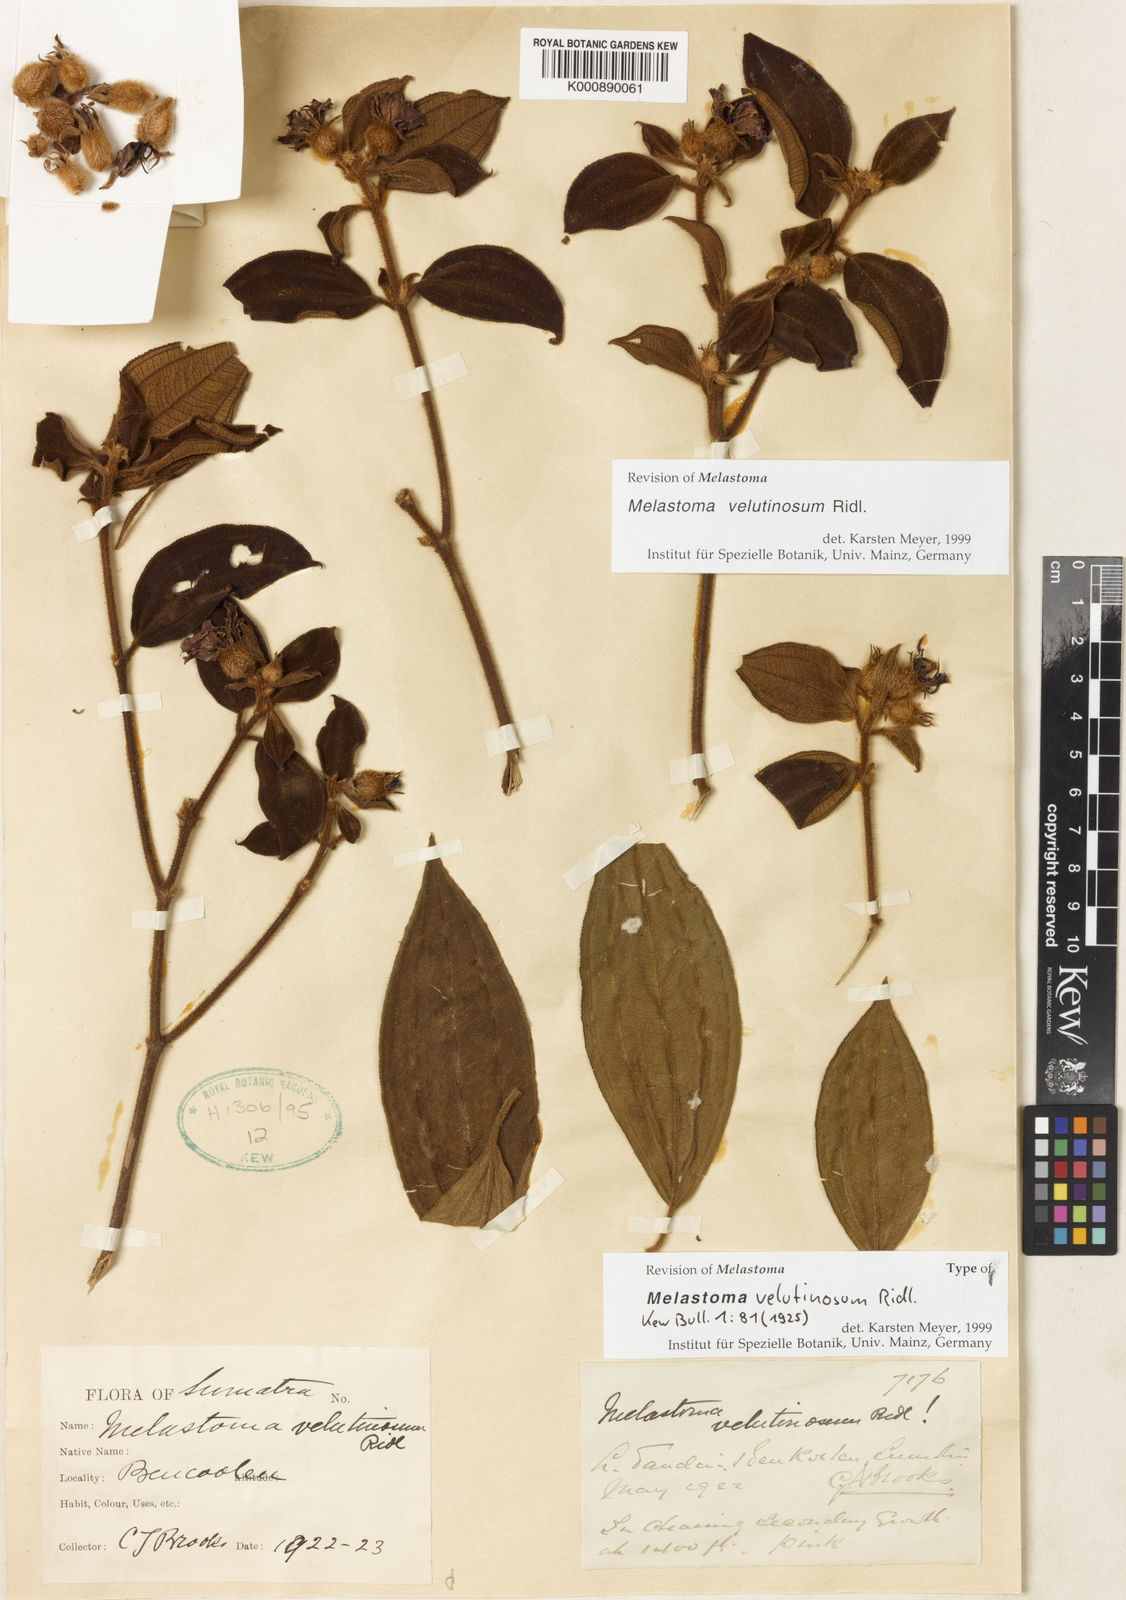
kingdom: Plantae
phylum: Tracheophyta
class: Magnoliopsida
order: Myrtales
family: Melastomataceae
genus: Melastoma
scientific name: Melastoma velutinosum
